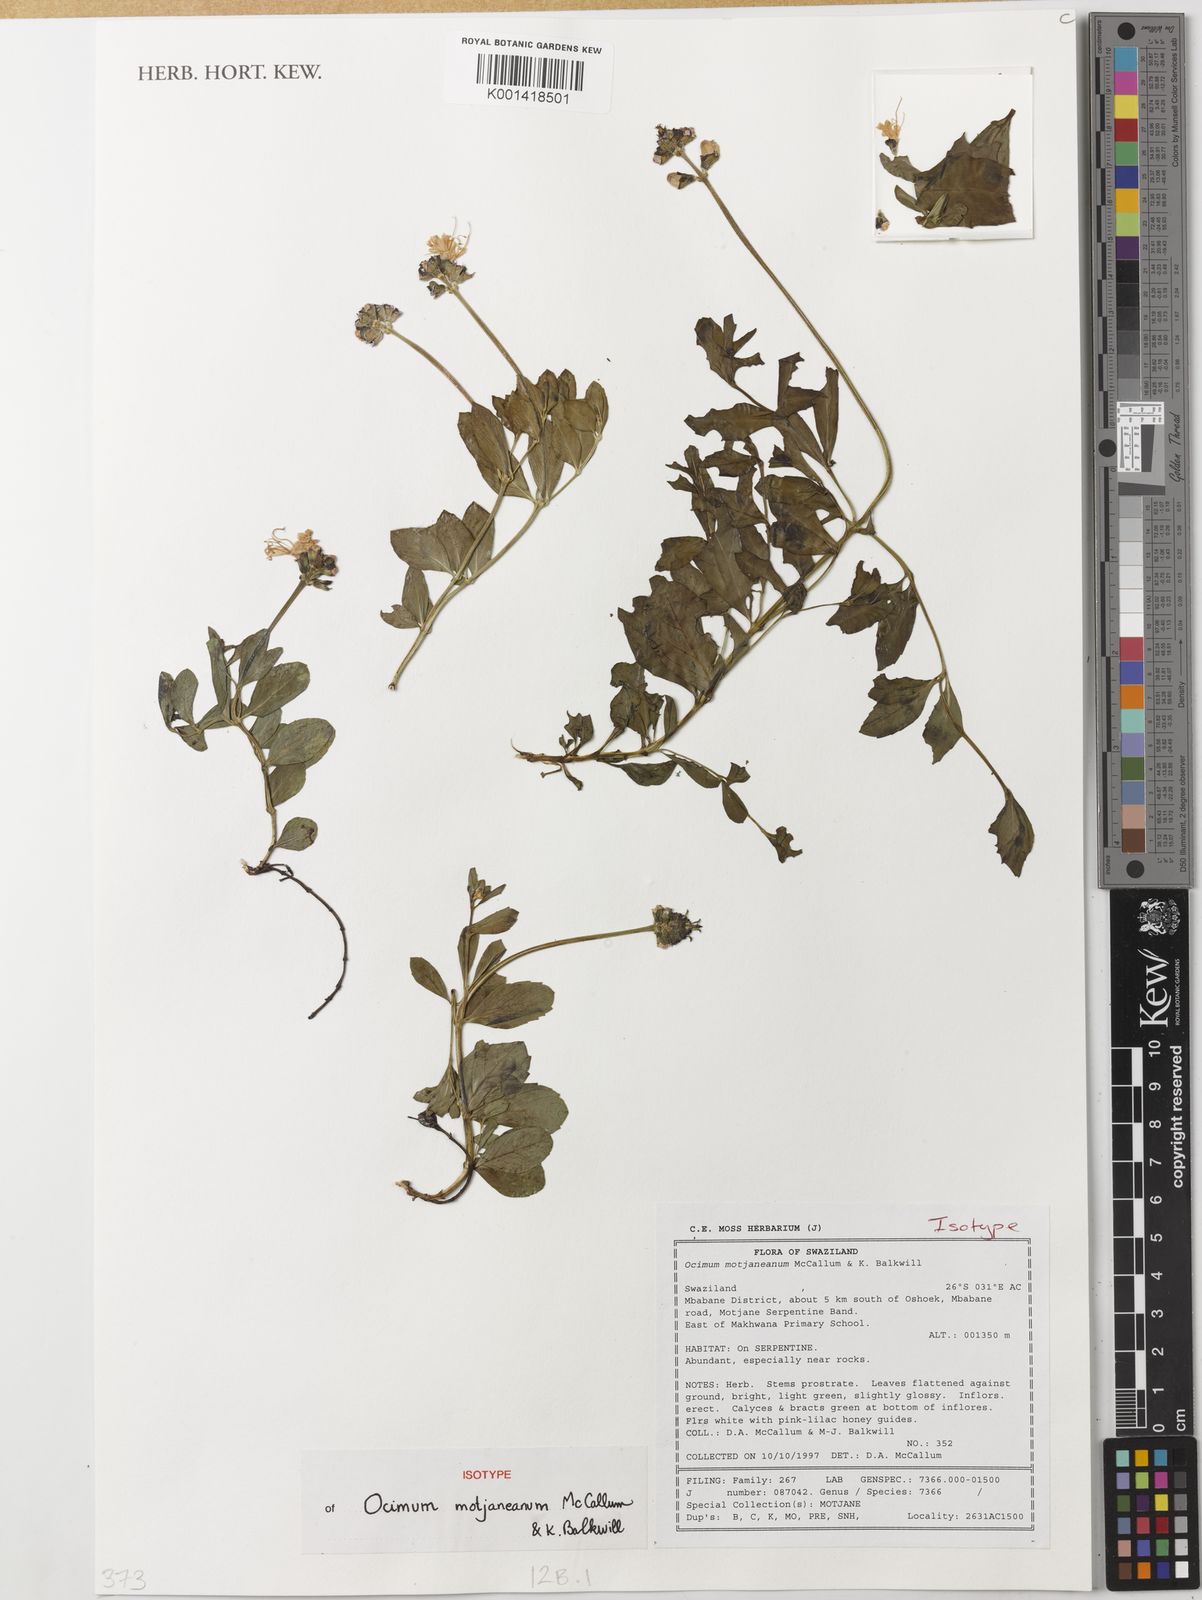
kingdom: Plantae
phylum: Tracheophyta
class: Magnoliopsida
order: Lamiales
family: Lamiaceae
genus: Ocimum
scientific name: Ocimum motjaneanum
